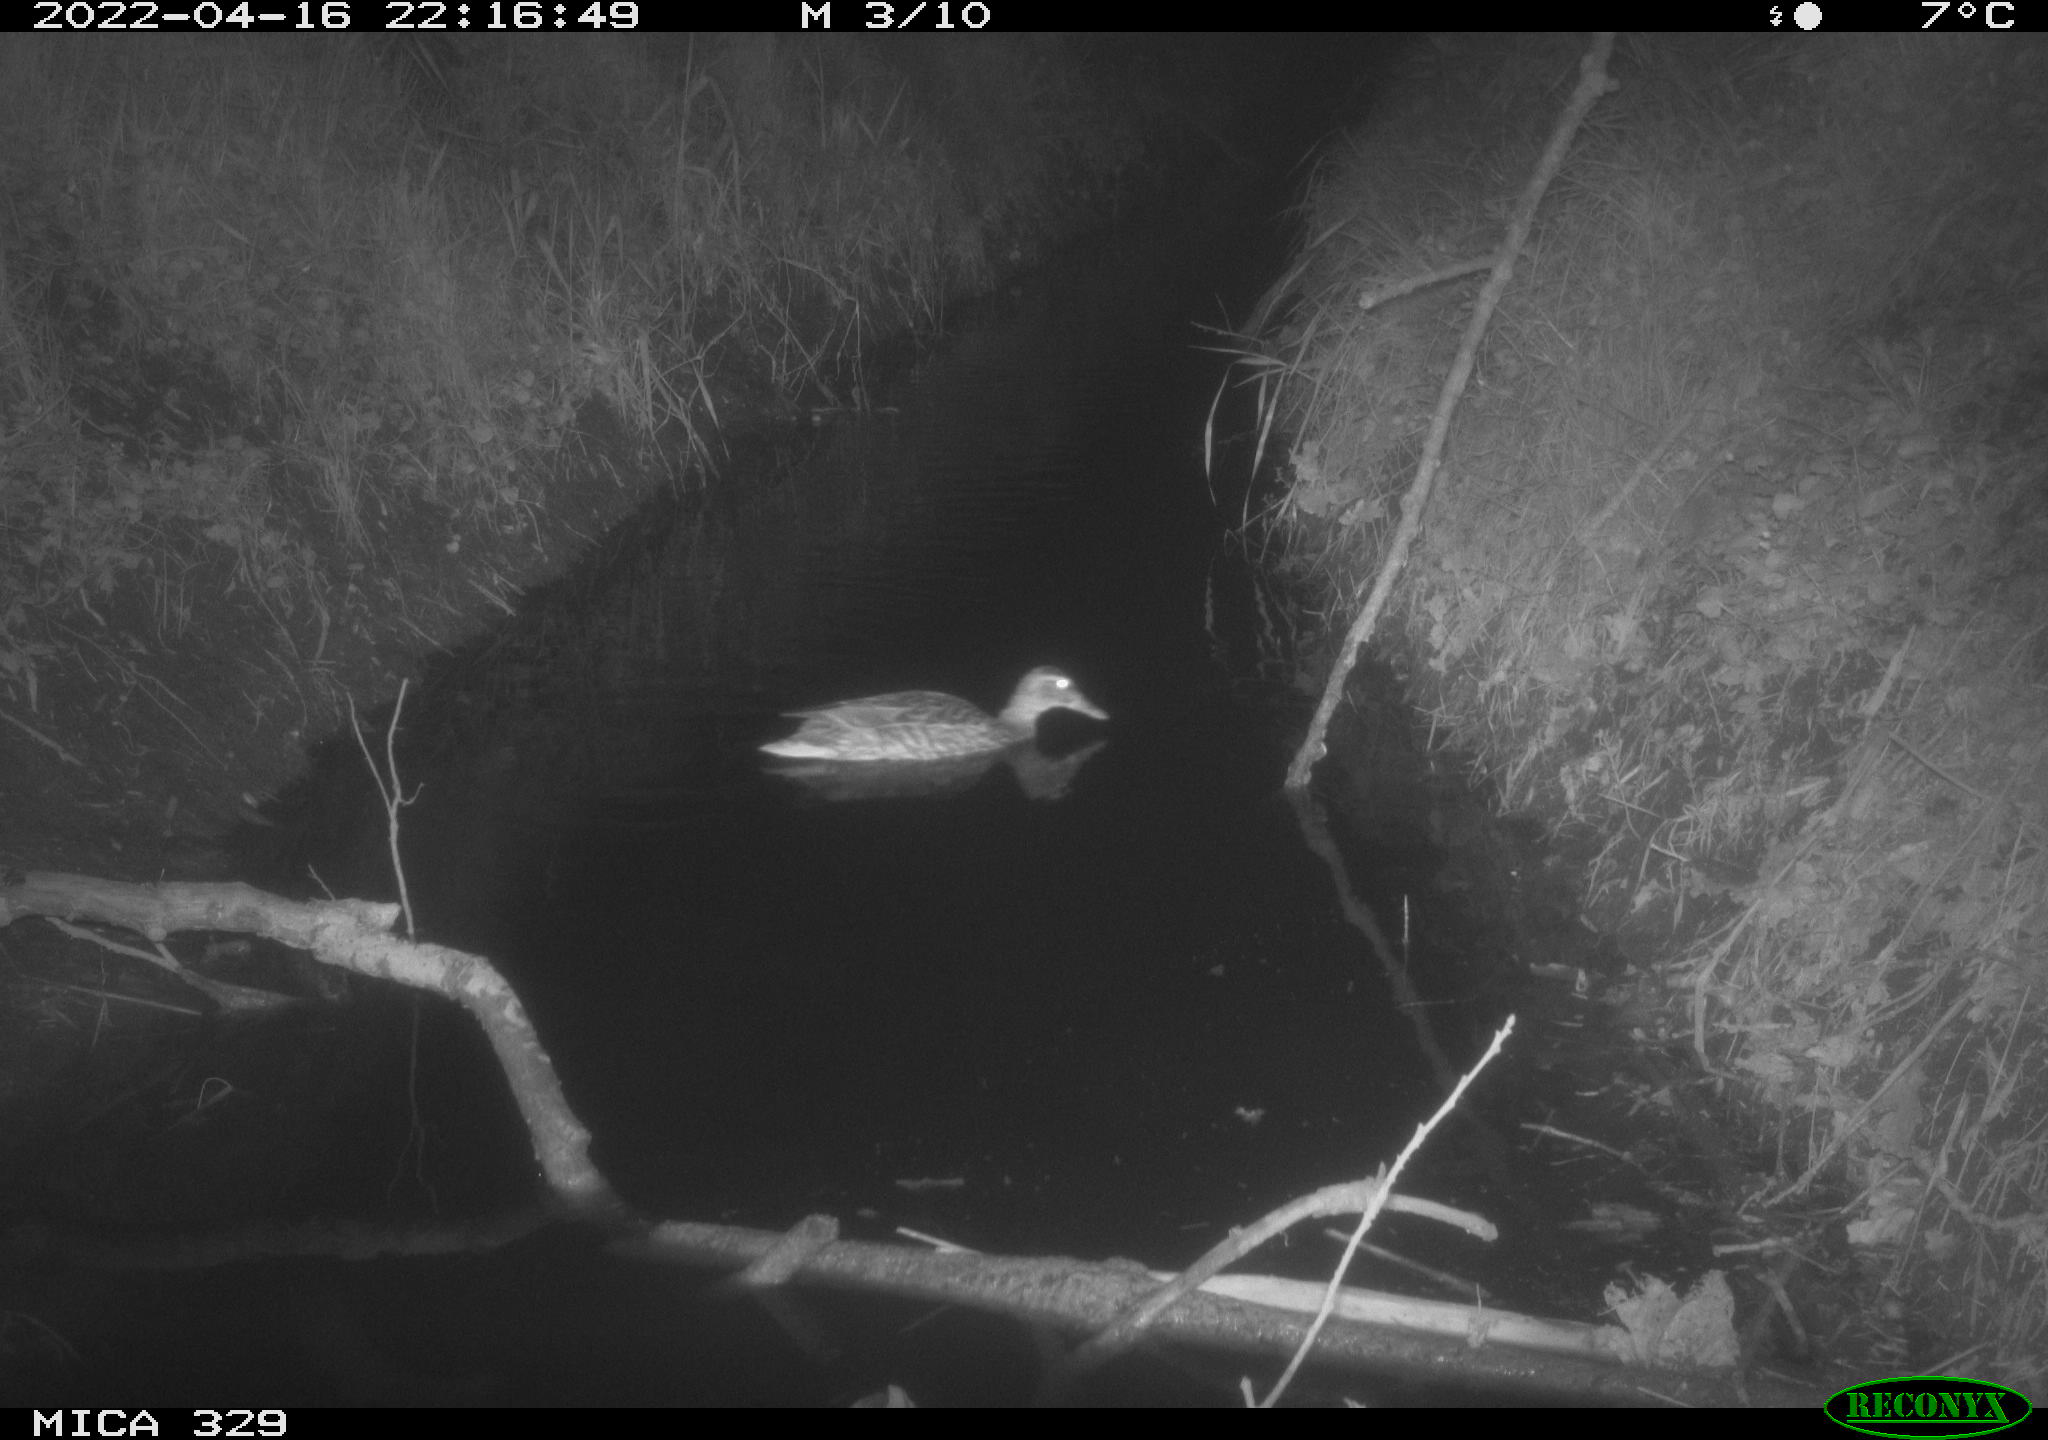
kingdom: Animalia
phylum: Chordata
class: Aves
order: Anseriformes
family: Anatidae
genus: Anas
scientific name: Anas platyrhynchos
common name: Mallard
